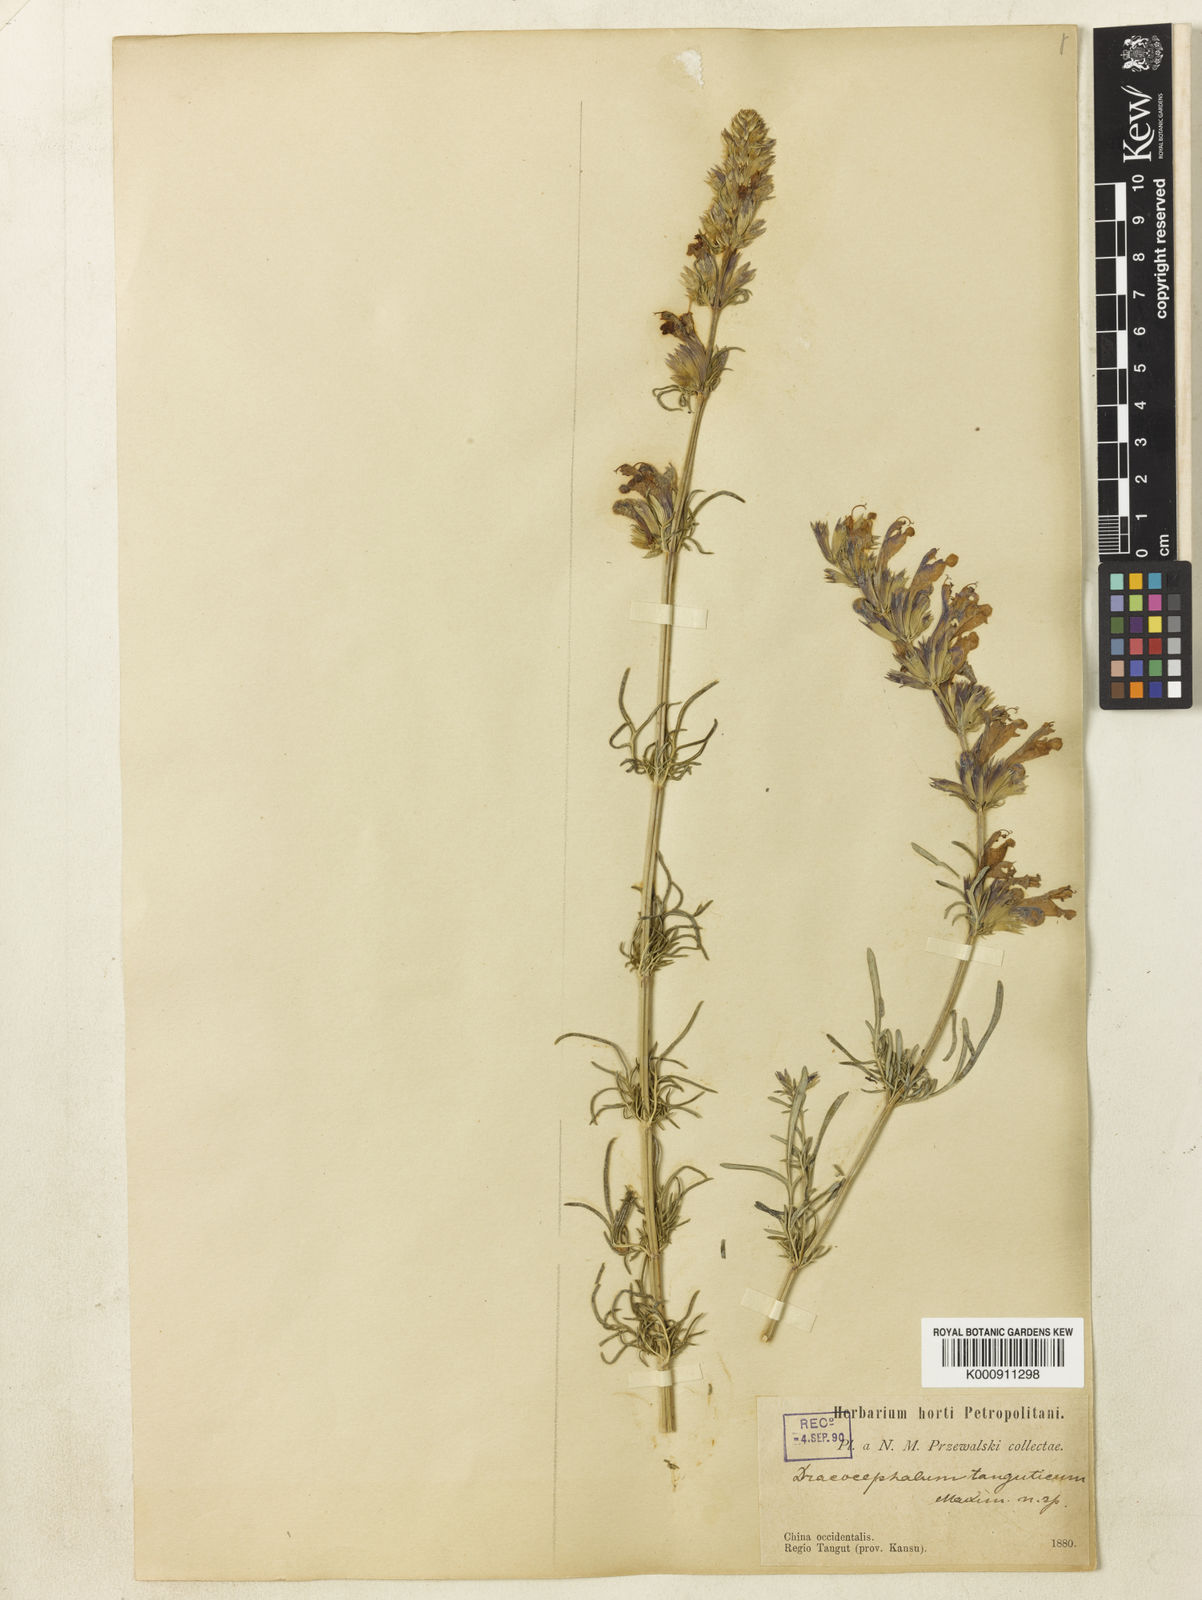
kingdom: Plantae
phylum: Tracheophyta
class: Magnoliopsida
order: Lamiales
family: Lamiaceae
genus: Dracocephalum
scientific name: Dracocephalum tanguticum
